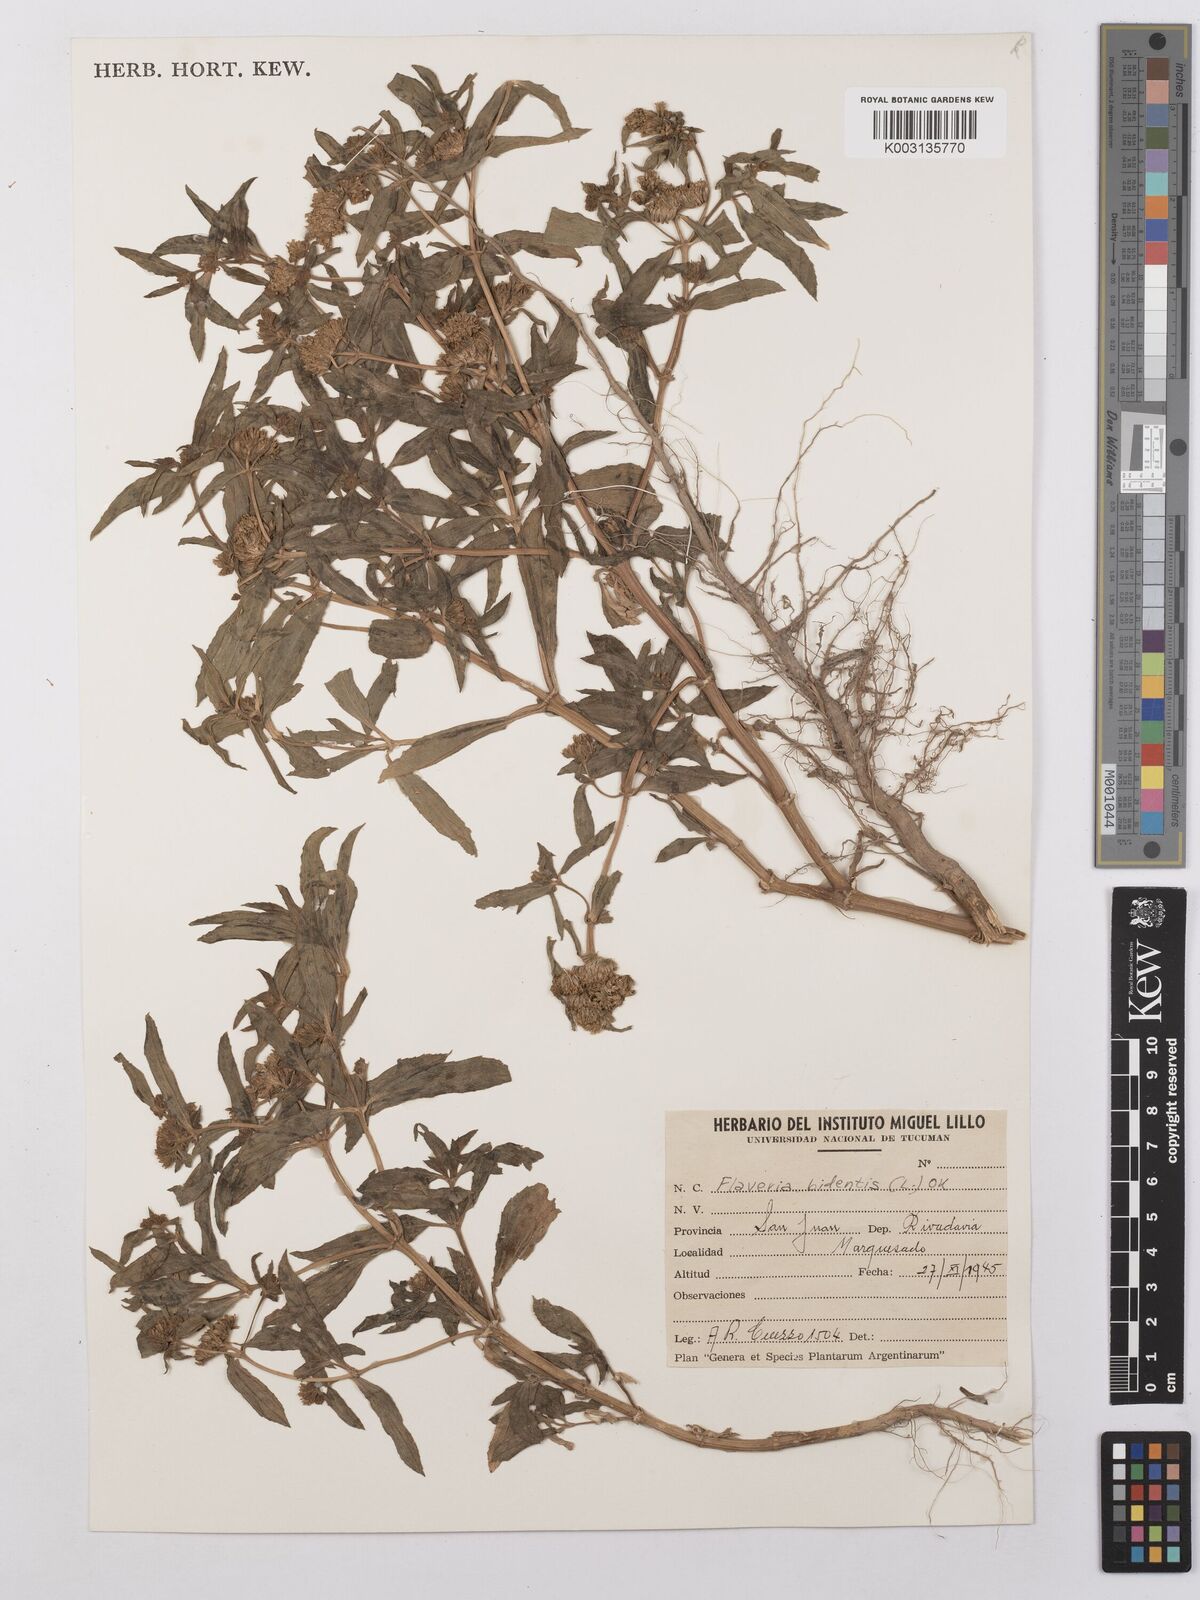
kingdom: Plantae
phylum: Tracheophyta
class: Magnoliopsida
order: Asterales
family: Asteraceae
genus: Flaveria
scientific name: Flaveria bidentis
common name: Coastal plain yellowtops
